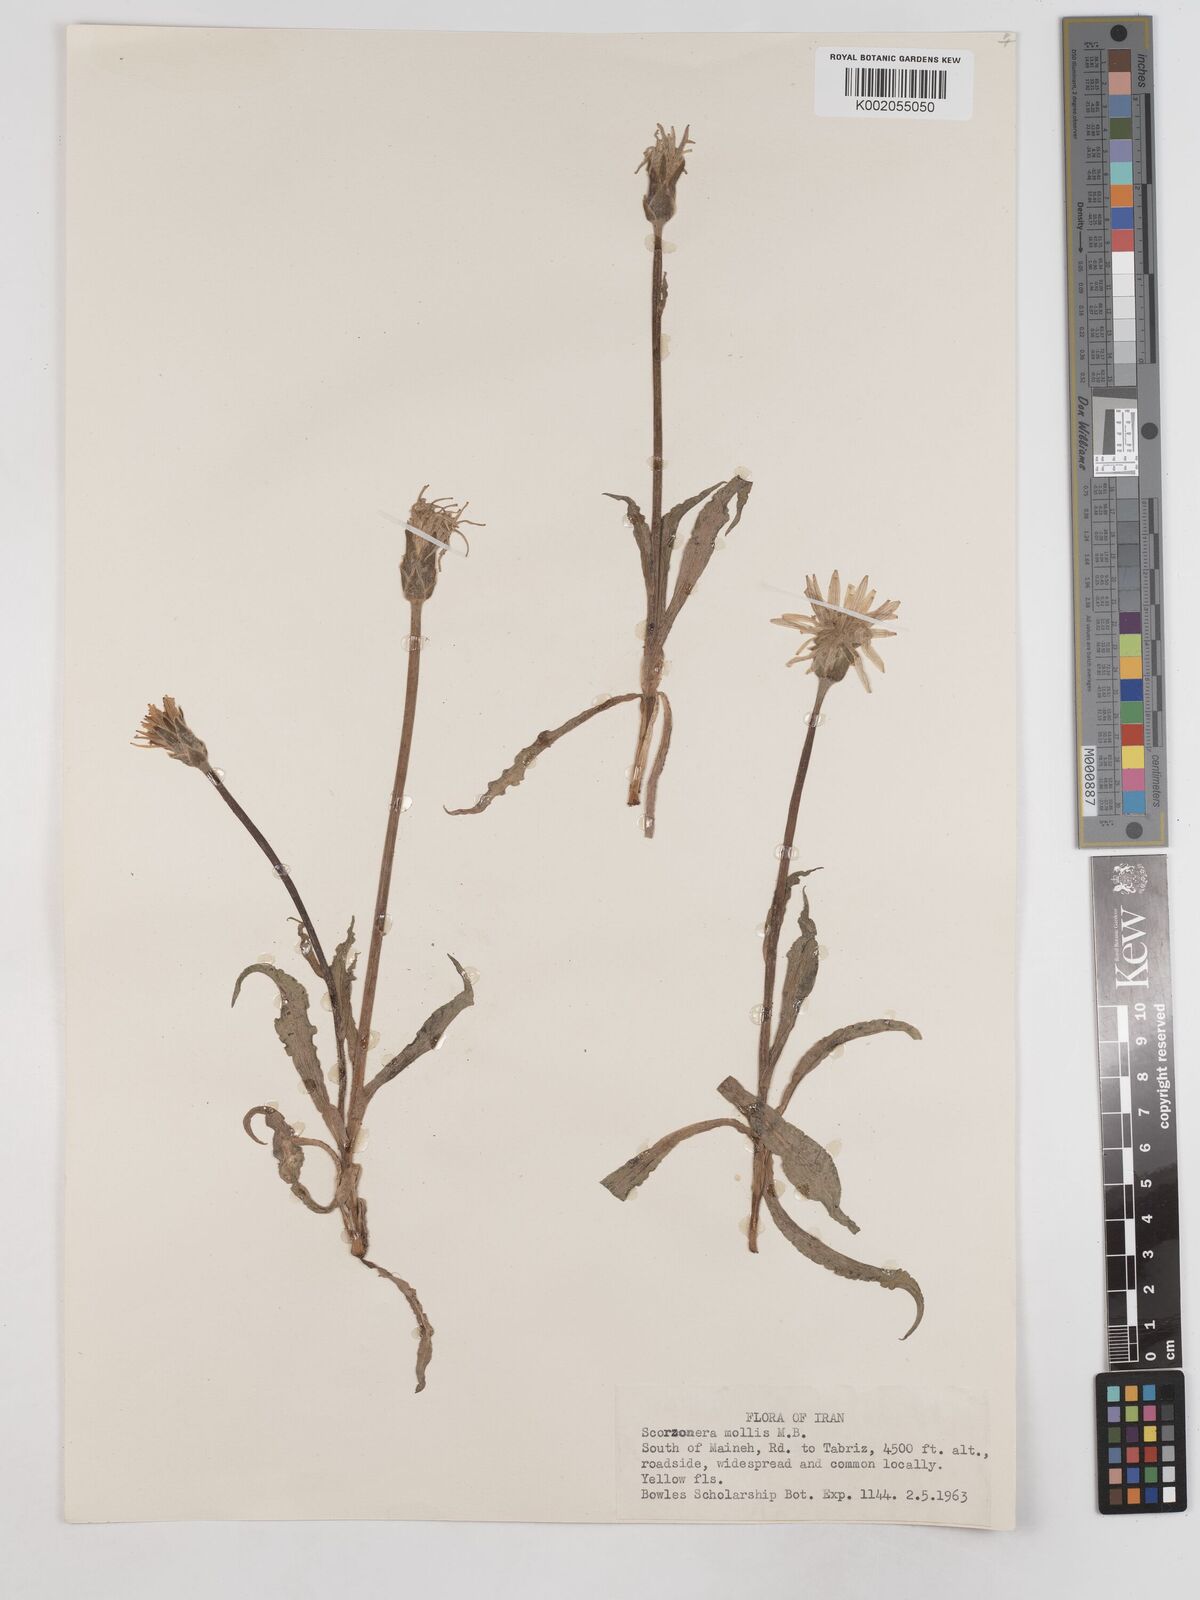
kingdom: Plantae
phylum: Tracheophyta
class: Magnoliopsida
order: Asterales
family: Asteraceae
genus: Candollea
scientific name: Candollea mollis
